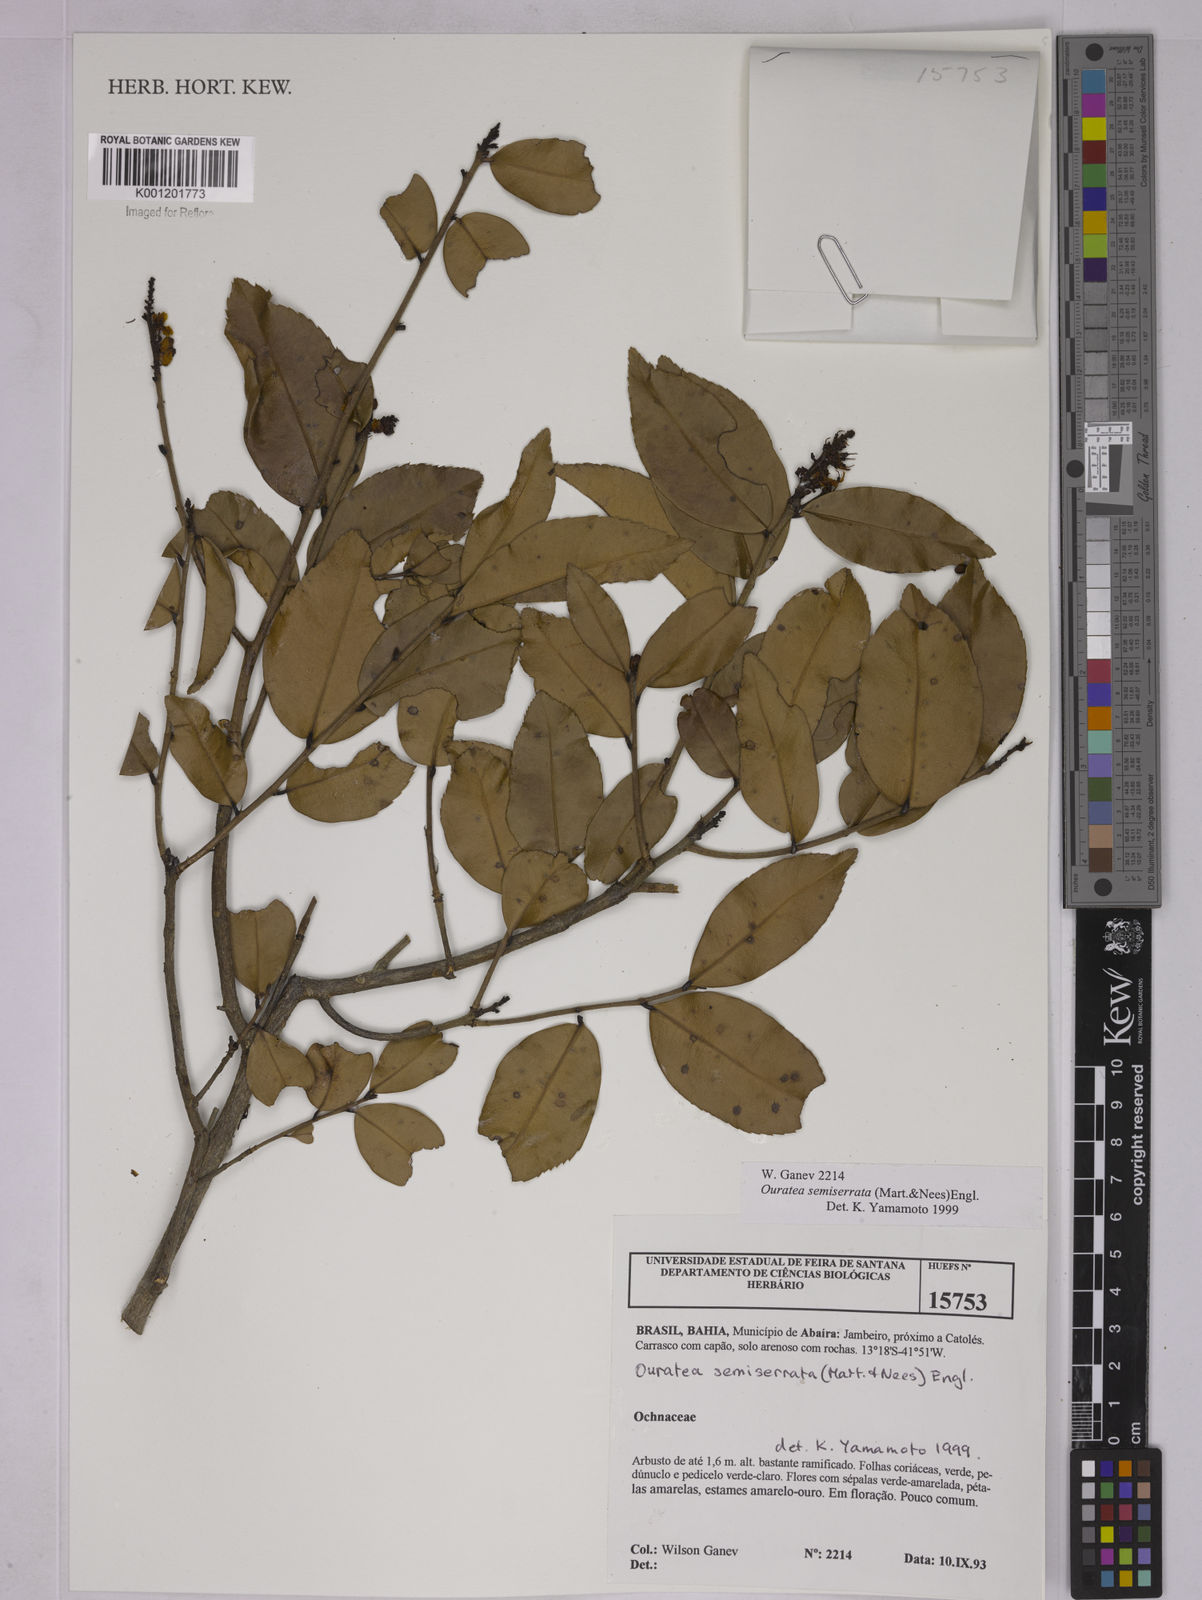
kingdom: Plantae
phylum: Tracheophyta
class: Magnoliopsida
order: Malpighiales
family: Ochnaceae
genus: Ouratea
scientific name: Ouratea semiserrata
